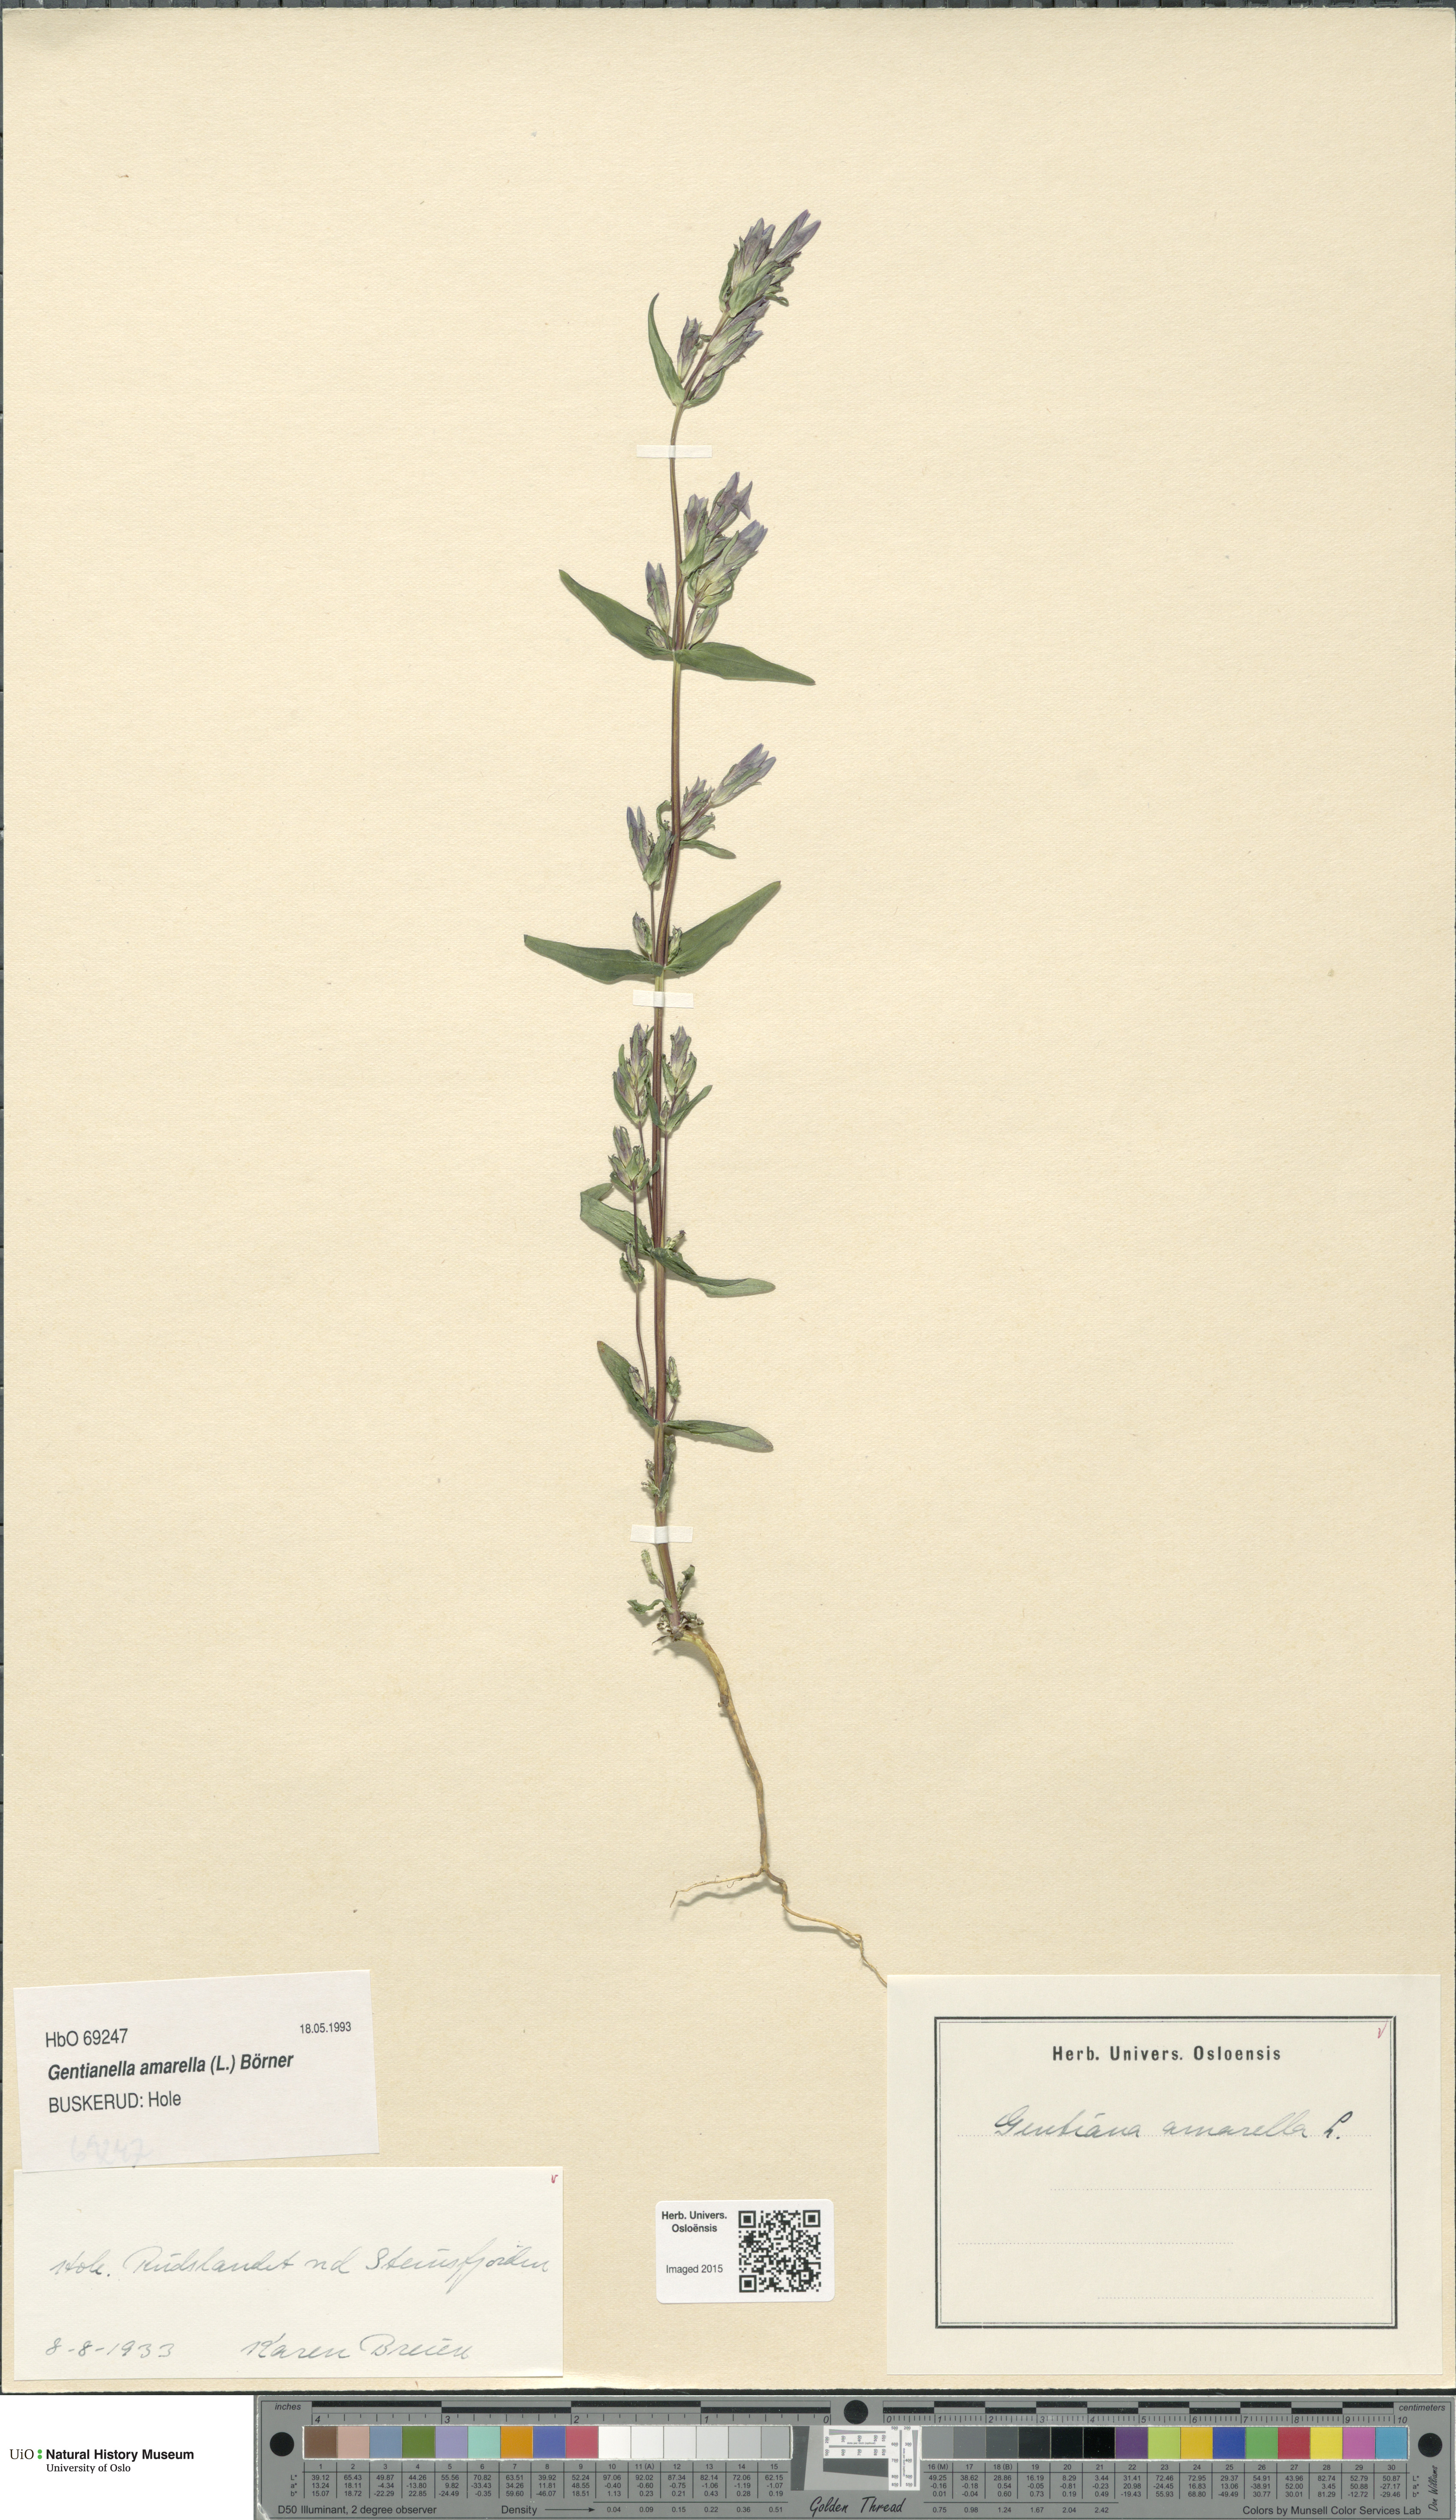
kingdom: Plantae
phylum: Tracheophyta
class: Magnoliopsida
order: Gentianales
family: Gentianaceae
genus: Gentianella
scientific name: Gentianella amarella
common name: Autumn gentian
